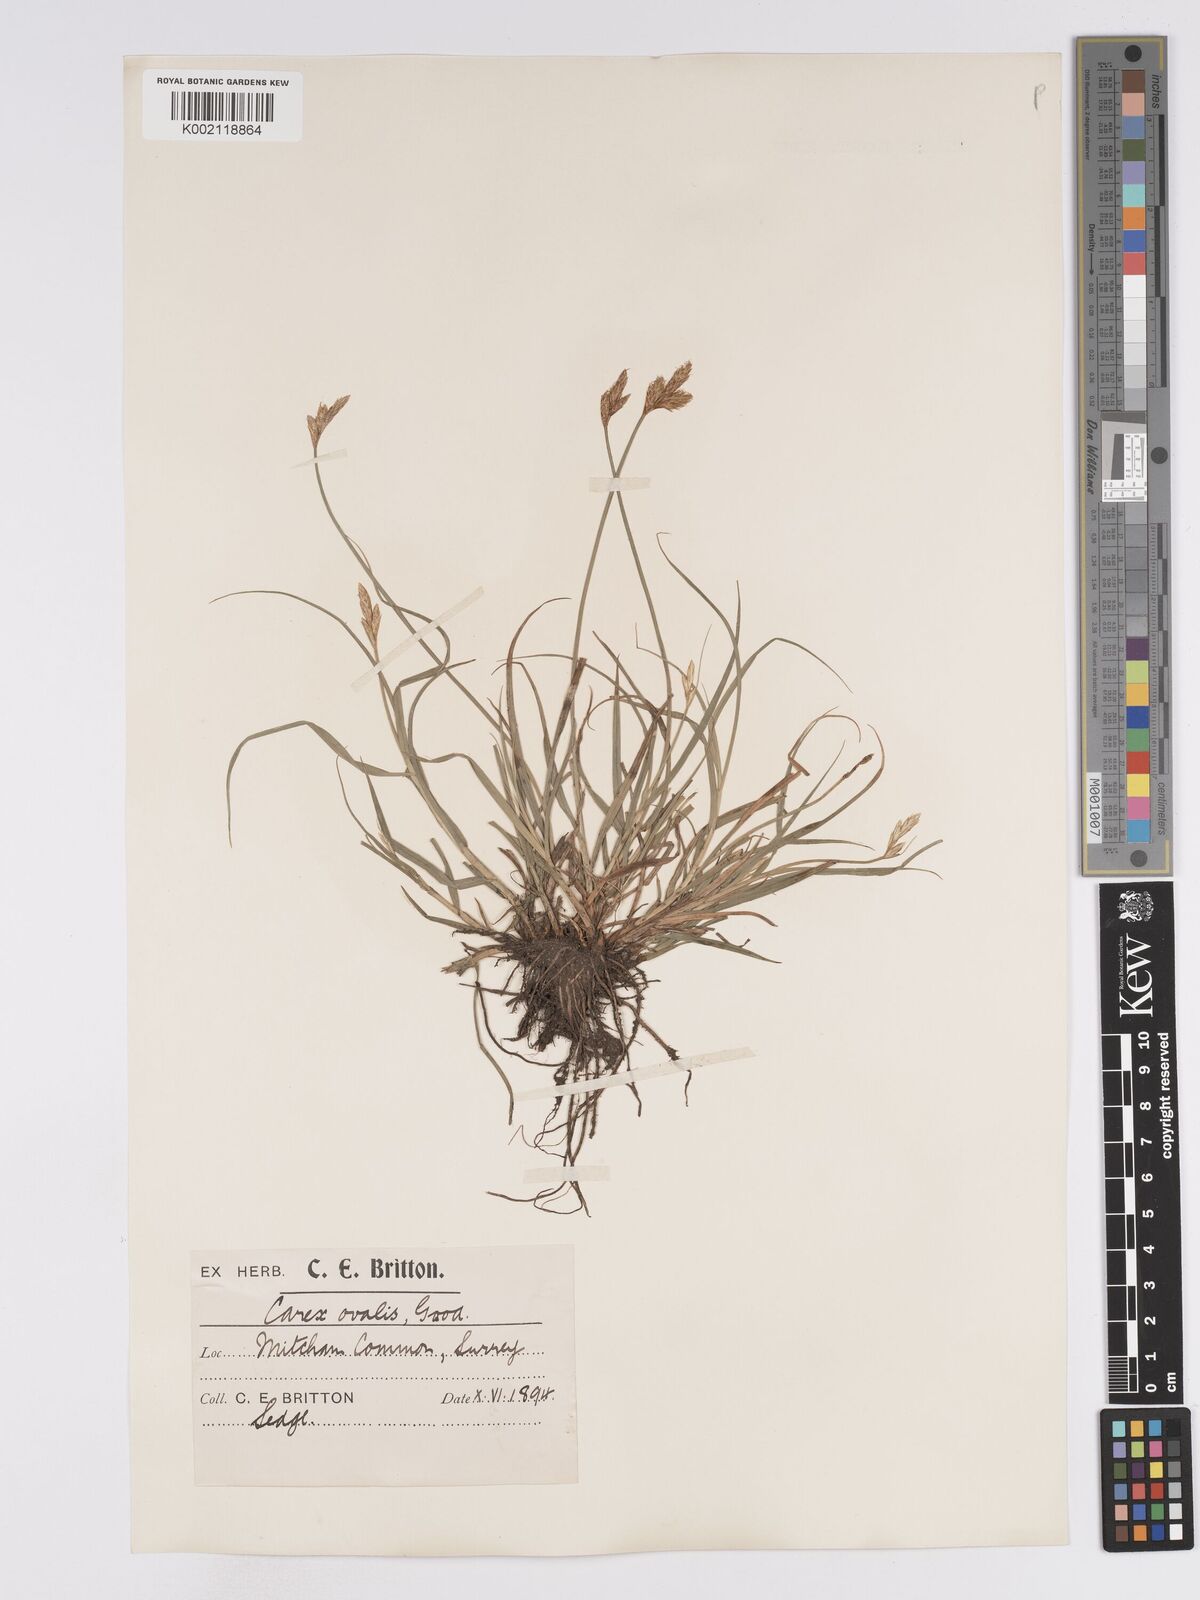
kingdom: Plantae
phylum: Tracheophyta
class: Liliopsida
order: Poales
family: Cyperaceae
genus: Carex
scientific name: Carex leporina
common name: Oval sedge
